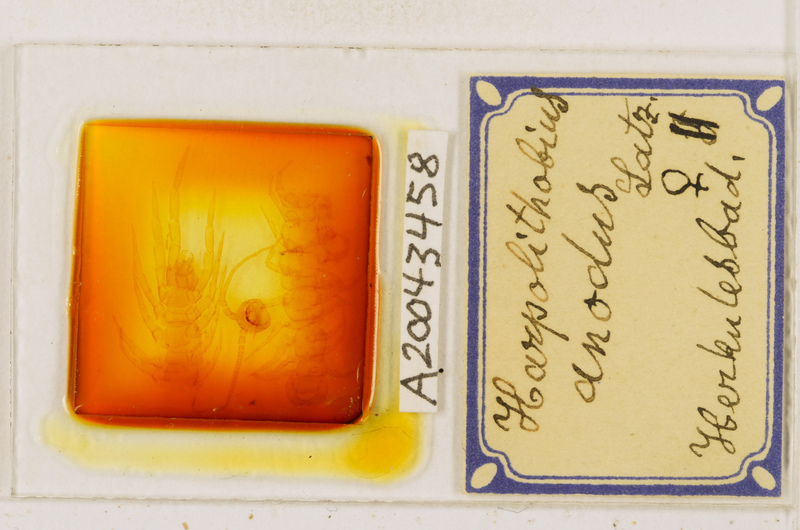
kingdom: Animalia
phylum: Arthropoda
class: Chilopoda
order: Lithobiomorpha
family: Lithobiidae
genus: Lithobius
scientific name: Lithobius
